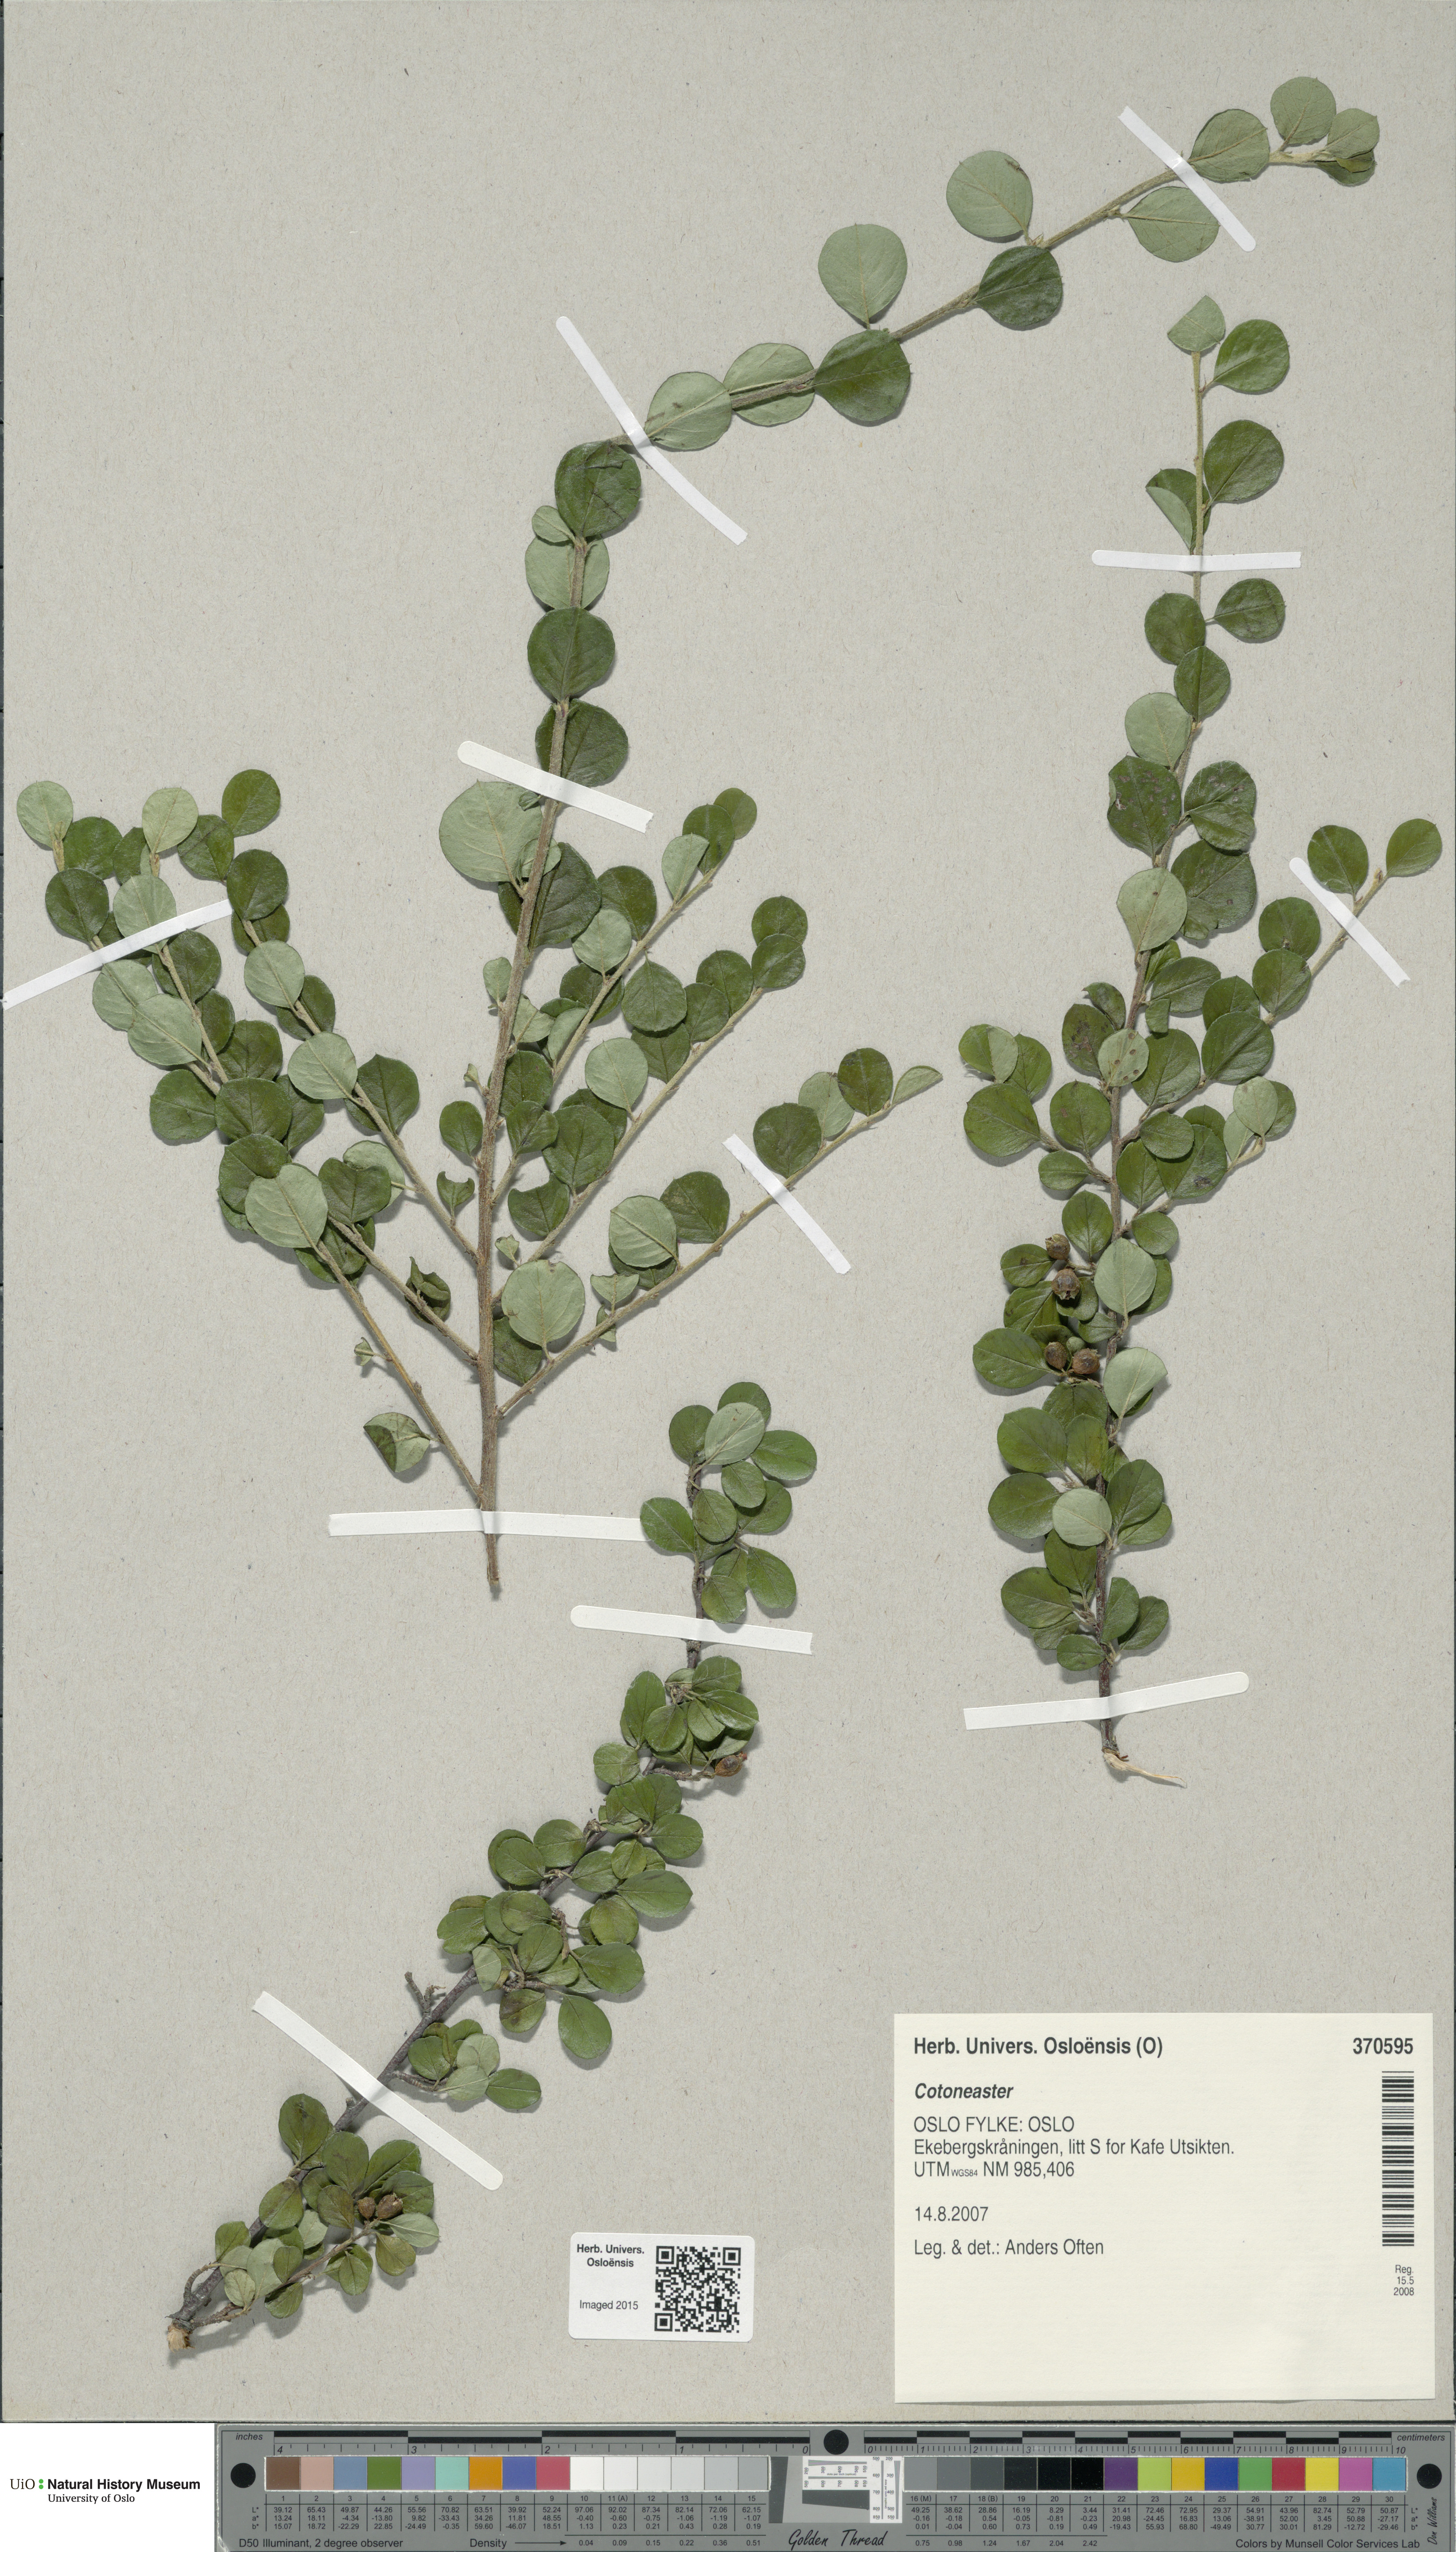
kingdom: Plantae
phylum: Tracheophyta
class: Magnoliopsida
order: Rosales
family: Rosaceae
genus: Cotoneaster
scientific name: Cotoneaster
